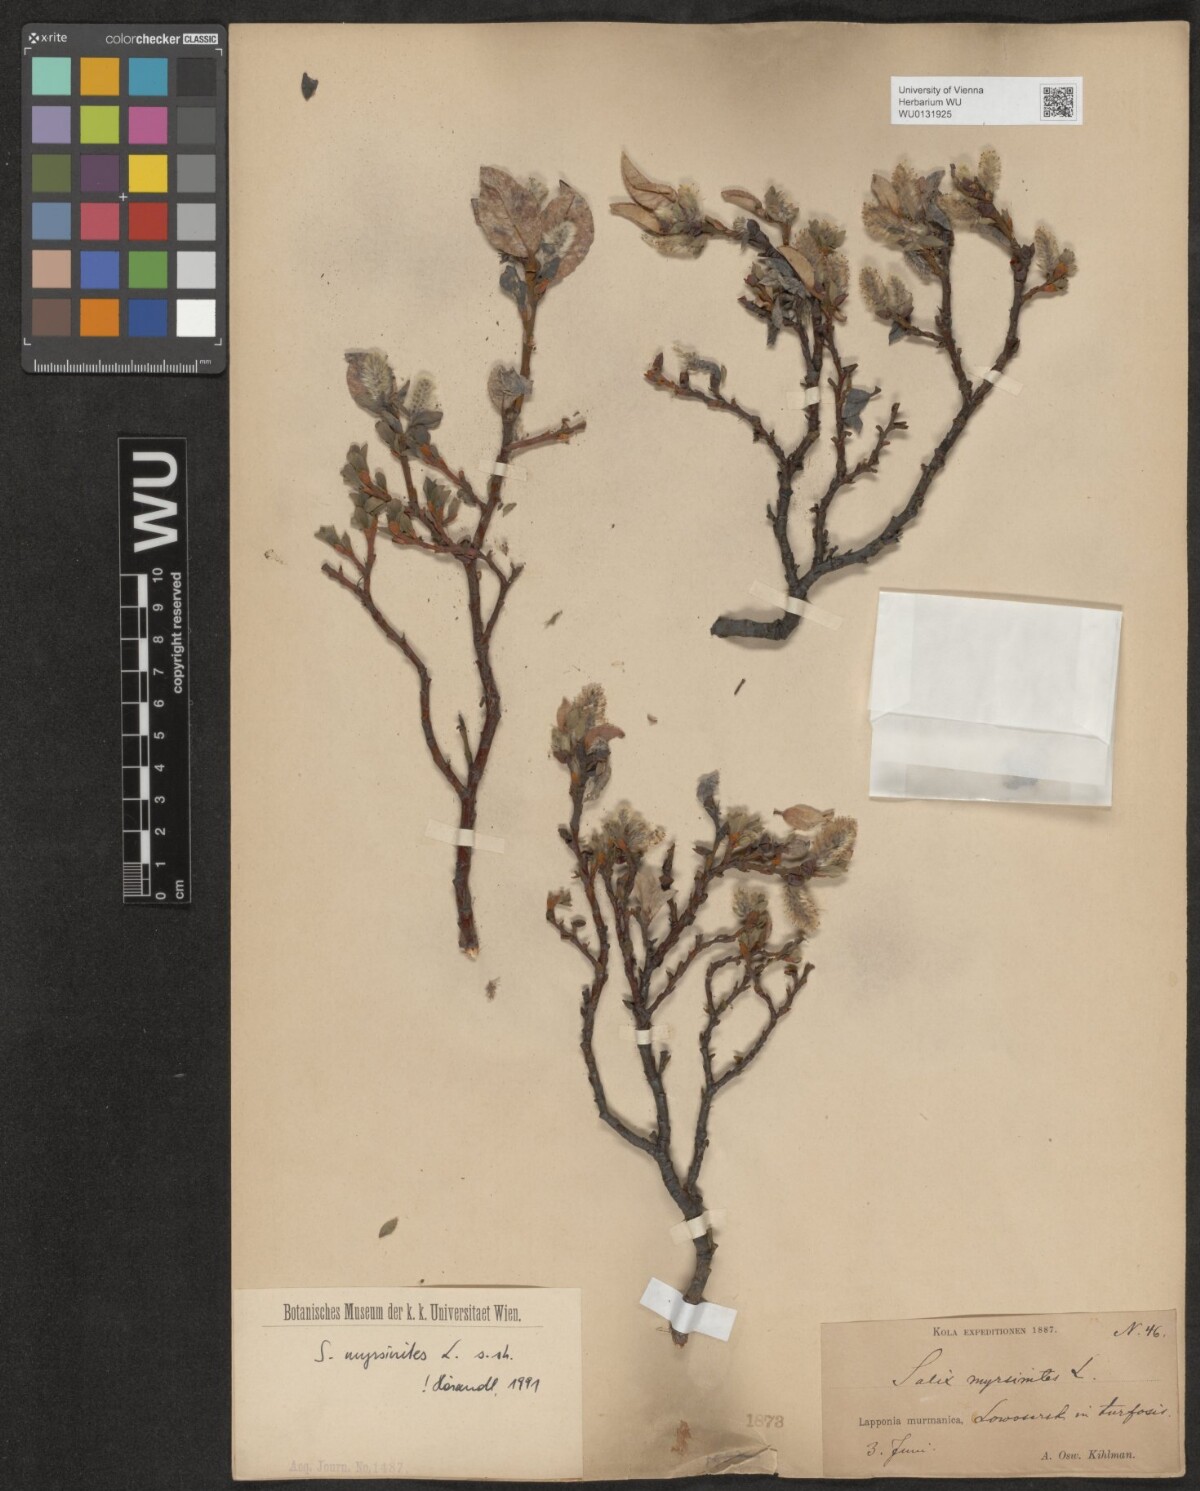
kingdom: Plantae
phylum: Tracheophyta
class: Magnoliopsida
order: Malpighiales
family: Salicaceae
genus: Salix
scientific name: Salix myrsinites
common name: Myrtle willow
